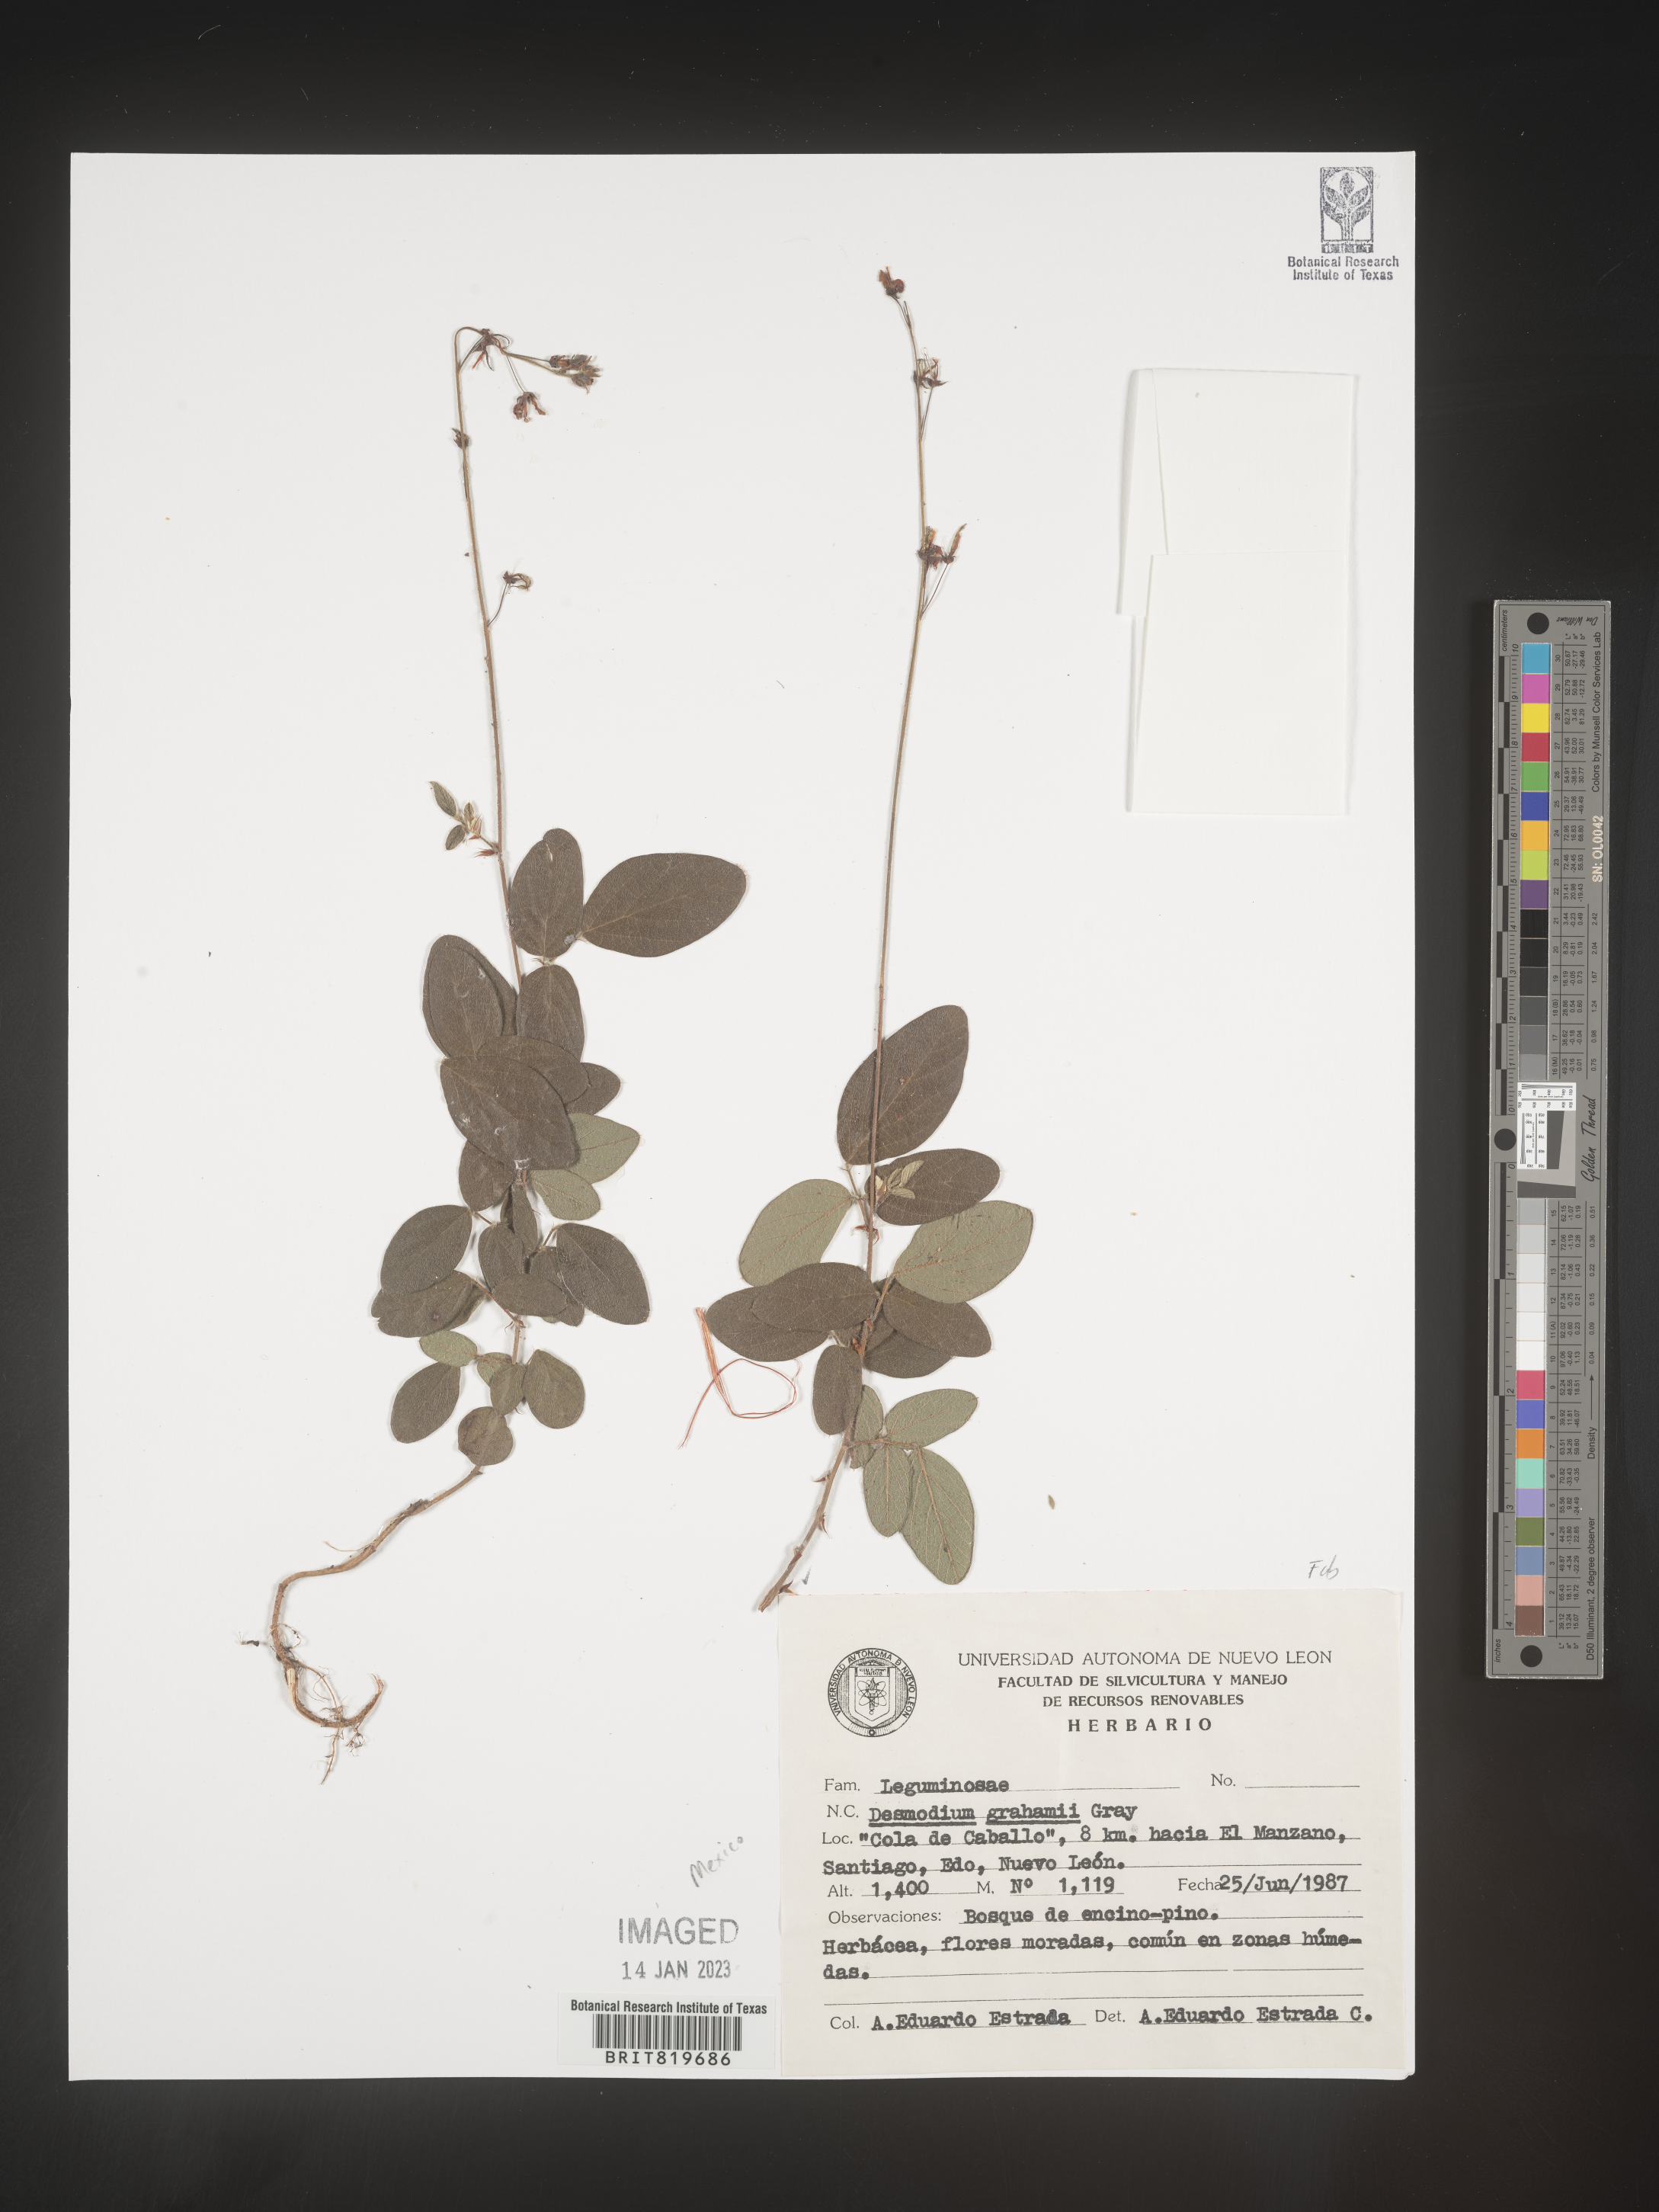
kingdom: Plantae
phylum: Tracheophyta
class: Magnoliopsida
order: Fabales
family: Fabaceae
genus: Desmodium
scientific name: Desmodium
